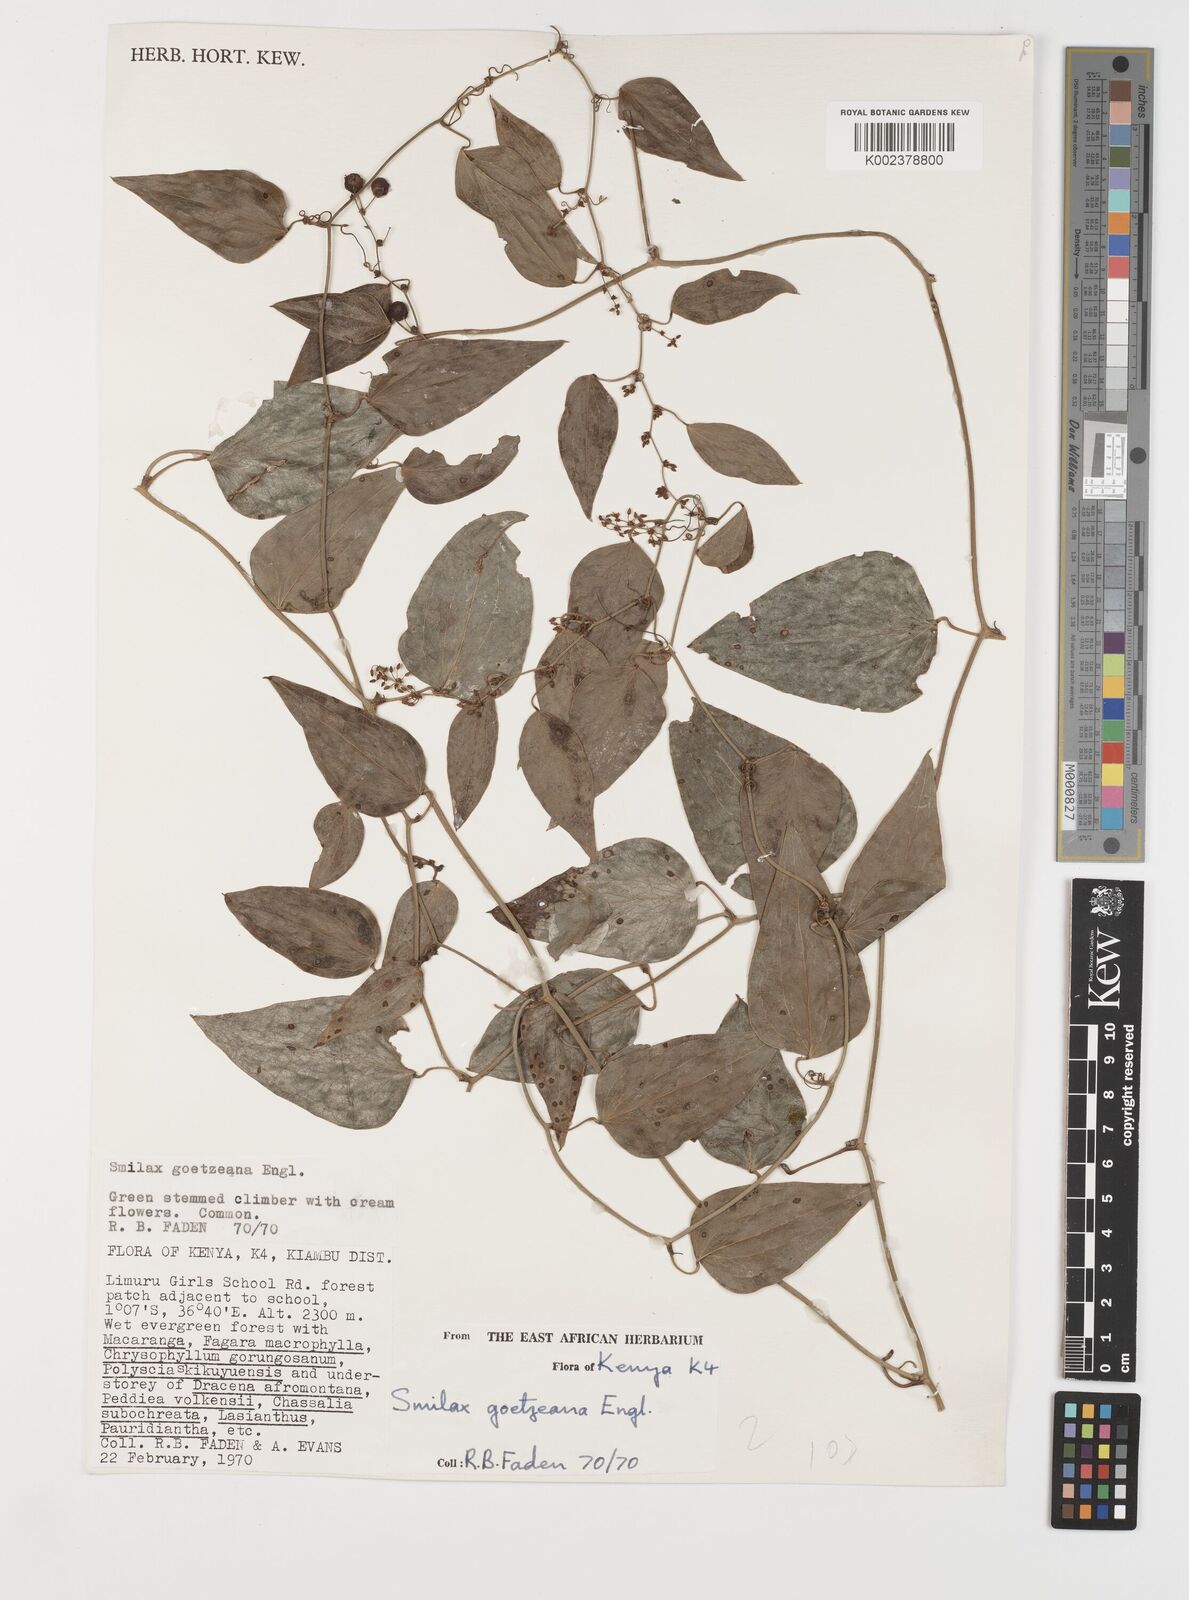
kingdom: Plantae
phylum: Tracheophyta
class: Liliopsida
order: Liliales
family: Smilacaceae
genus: Smilax
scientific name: Smilax
